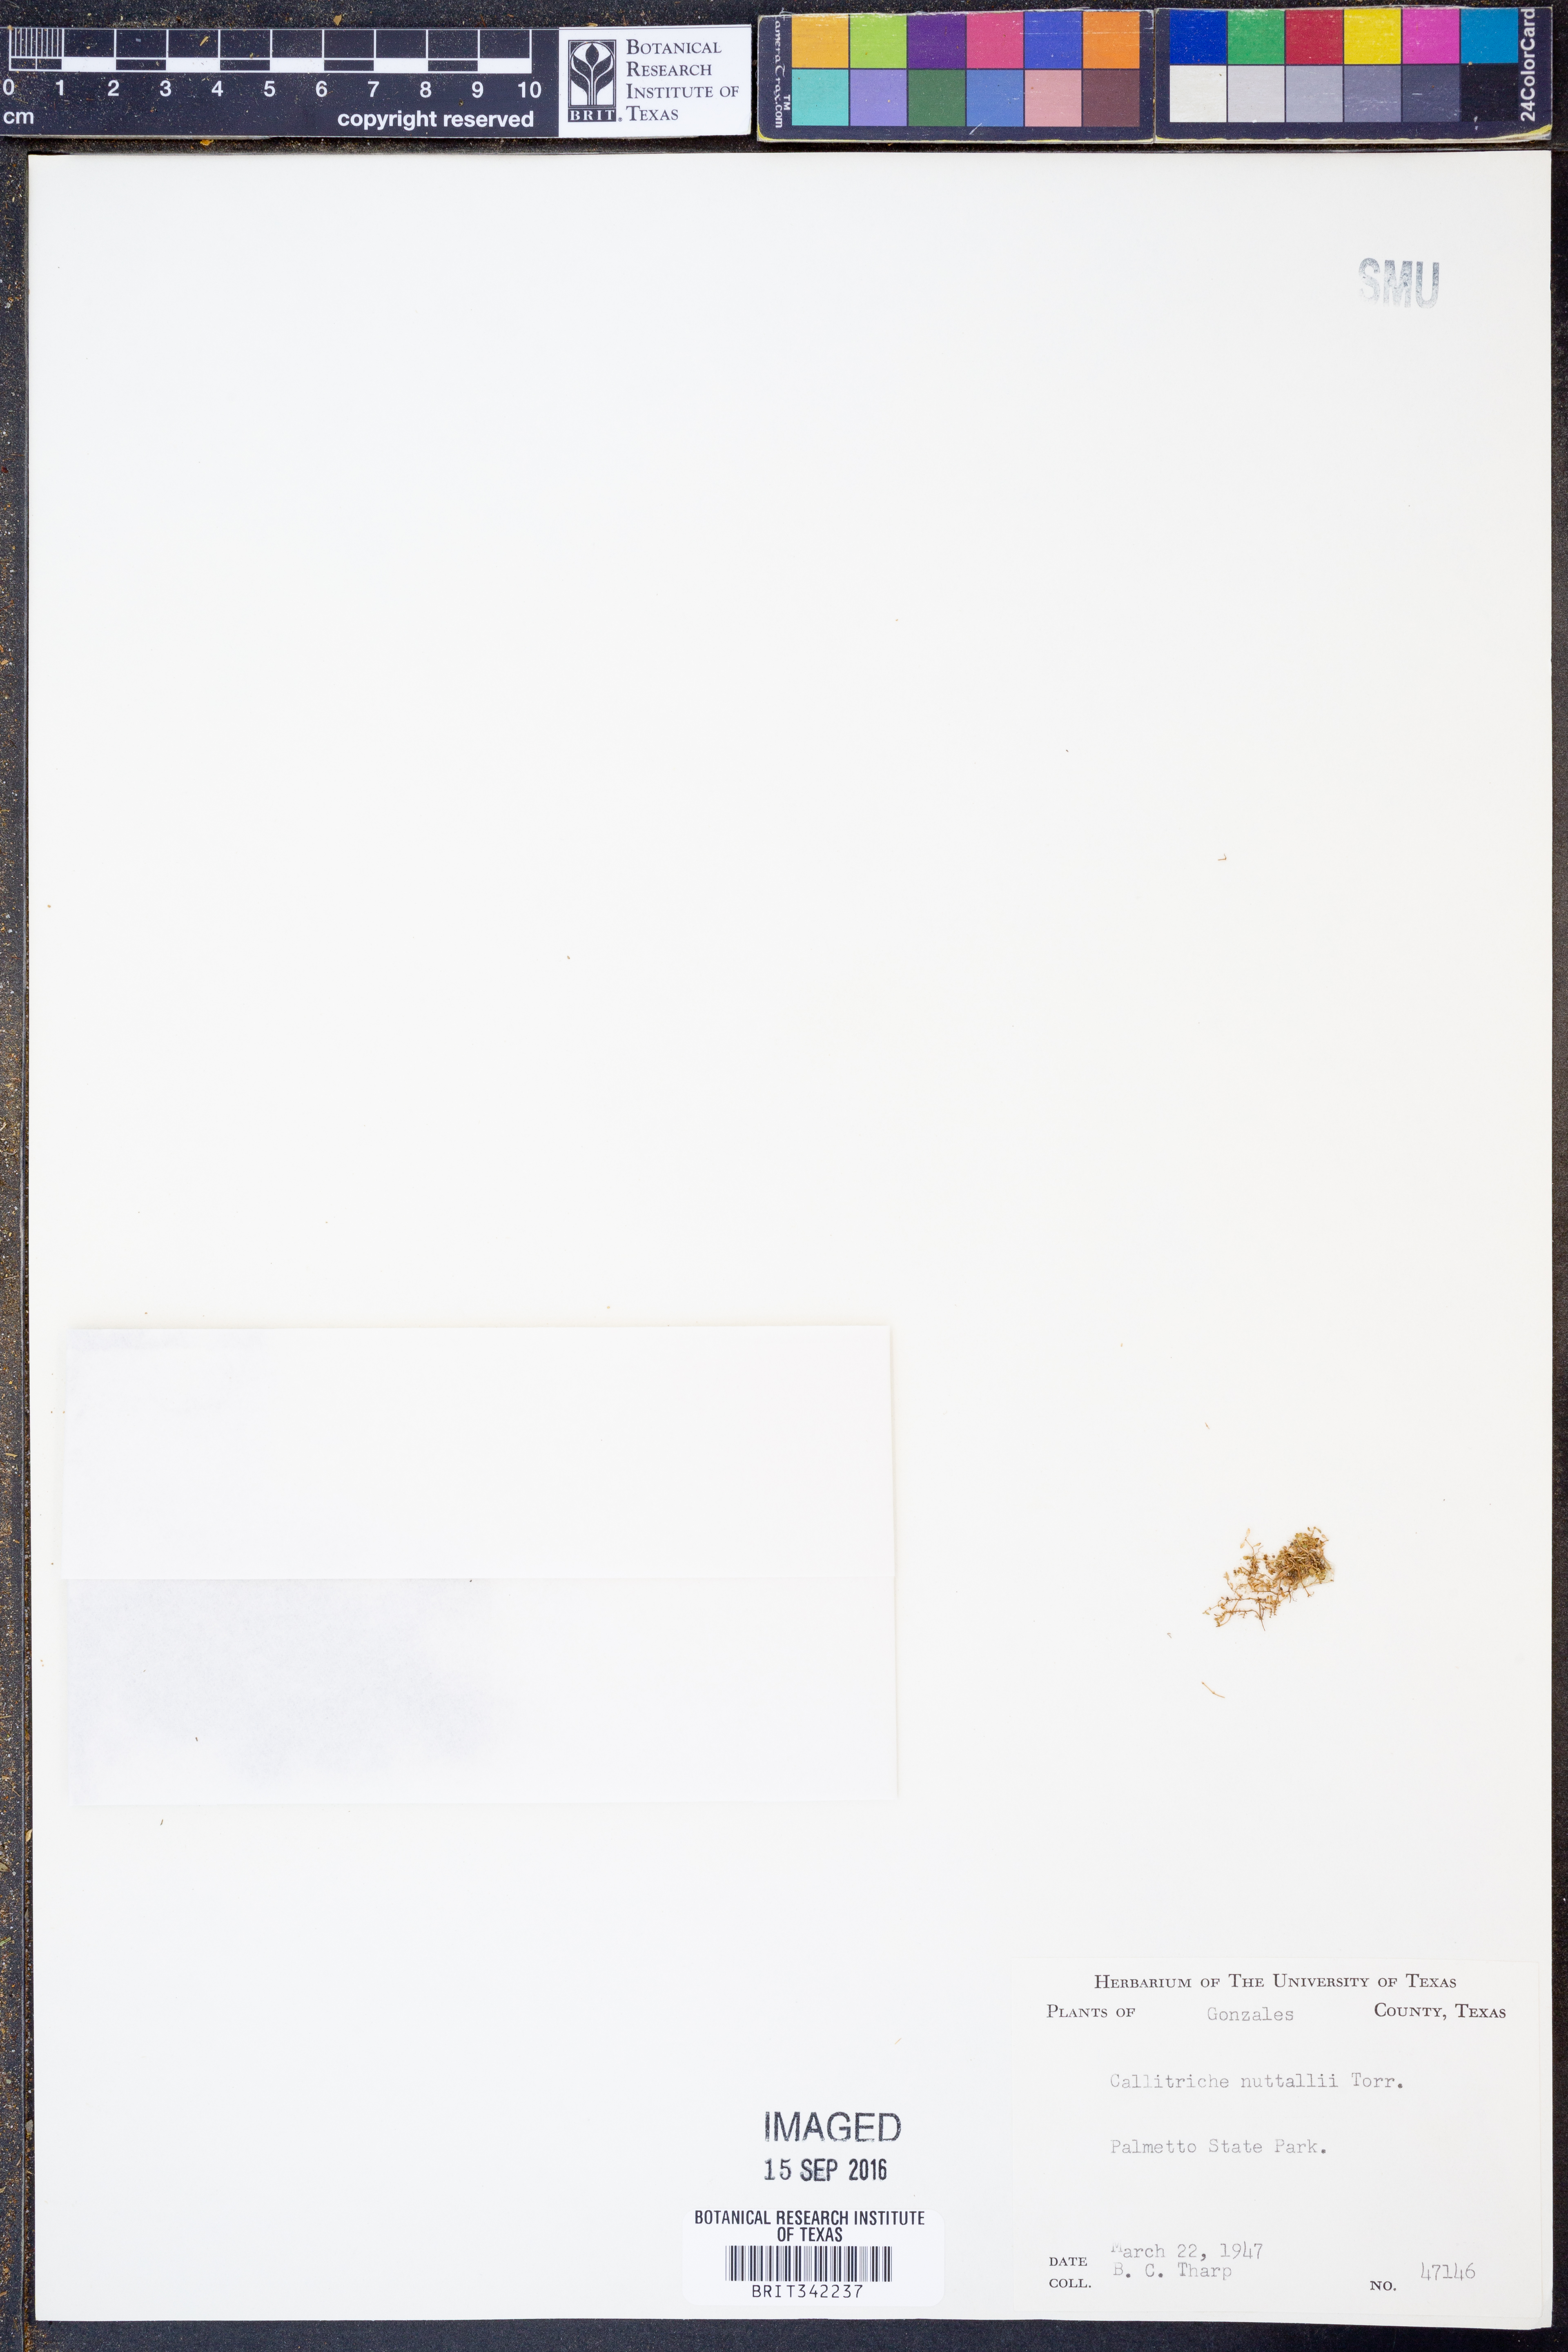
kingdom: Plantae
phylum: Tracheophyta
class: Magnoliopsida
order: Lamiales
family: Plantaginaceae
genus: Callitriche
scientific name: Callitriche pedunculosa
